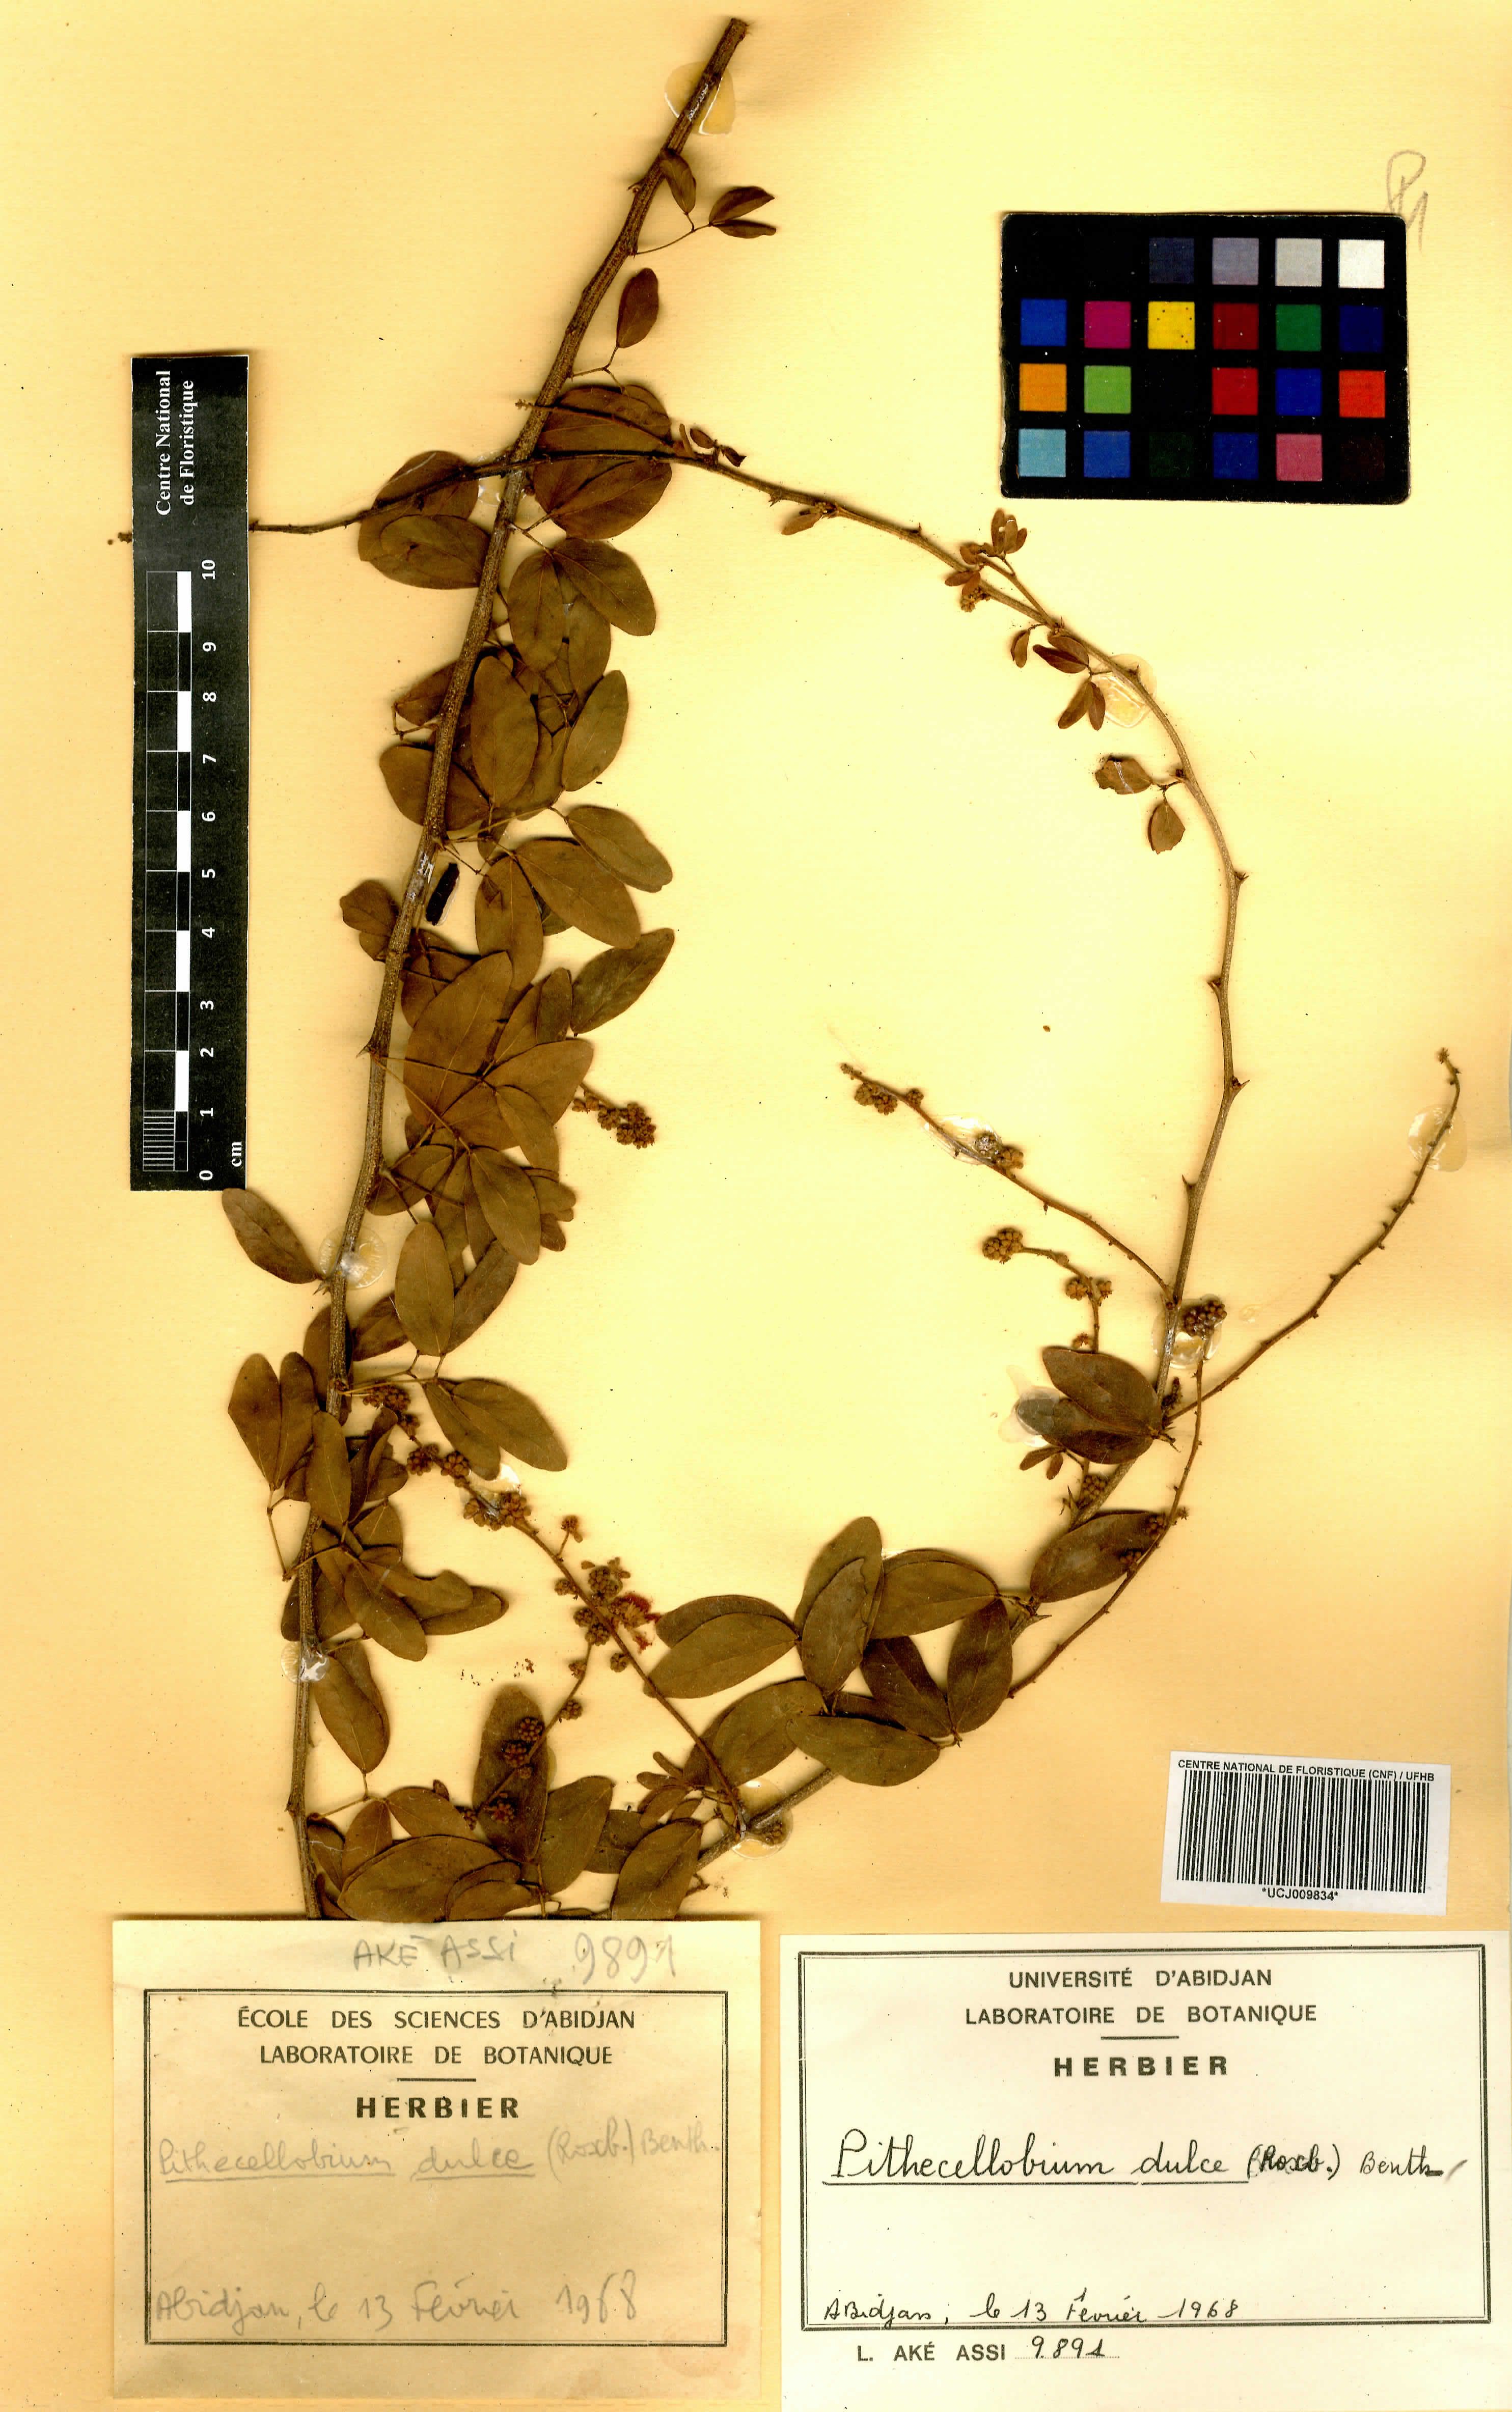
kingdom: Plantae
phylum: Tracheophyta
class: Magnoliopsida
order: Fabales
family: Fabaceae
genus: Pithecellobium
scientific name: Pithecellobium dulce
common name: Monkeypod
